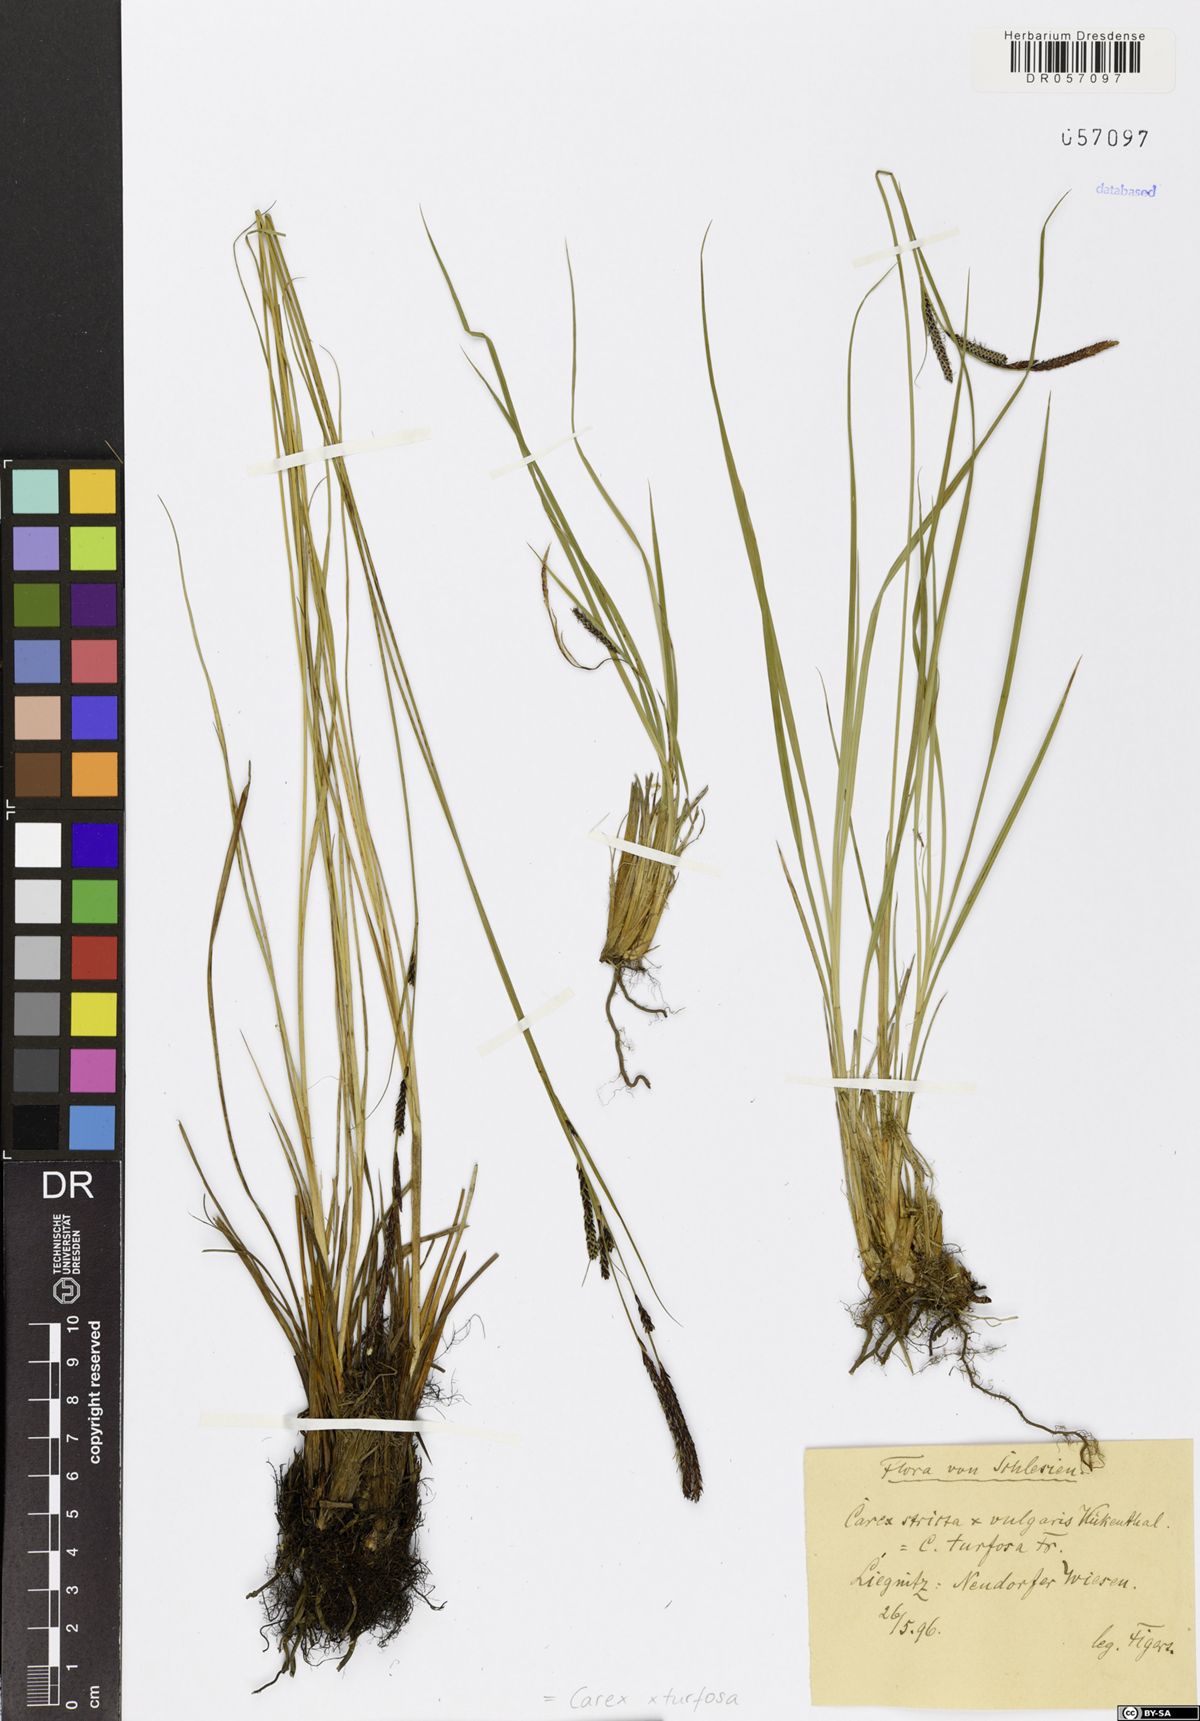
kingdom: Plantae
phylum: Tracheophyta
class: Liliopsida
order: Poales
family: Cyperaceae
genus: Carex
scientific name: Carex turfosa
